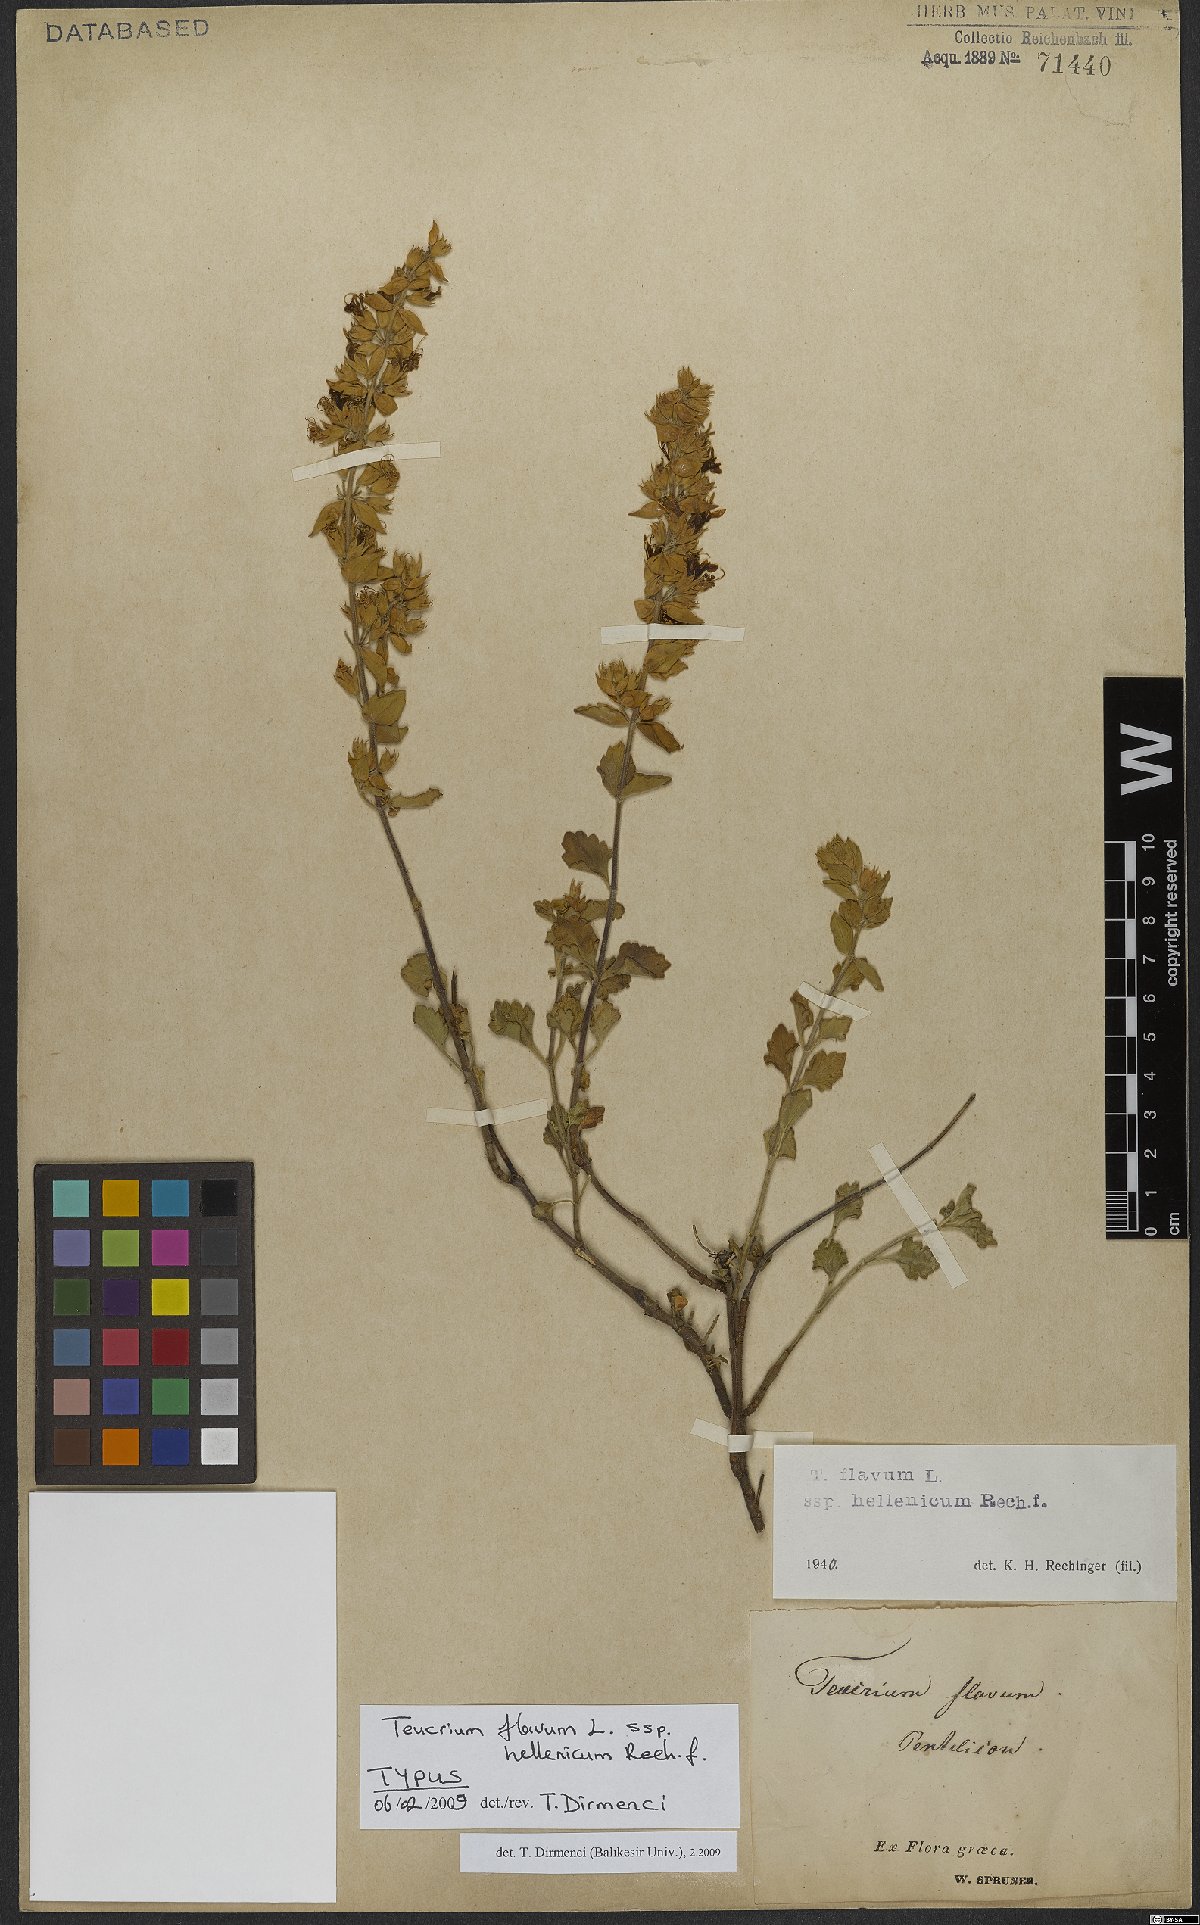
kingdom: Plantae
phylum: Tracheophyta
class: Magnoliopsida
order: Lamiales
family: Lamiaceae
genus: Teucrium
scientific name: Teucrium flavum
